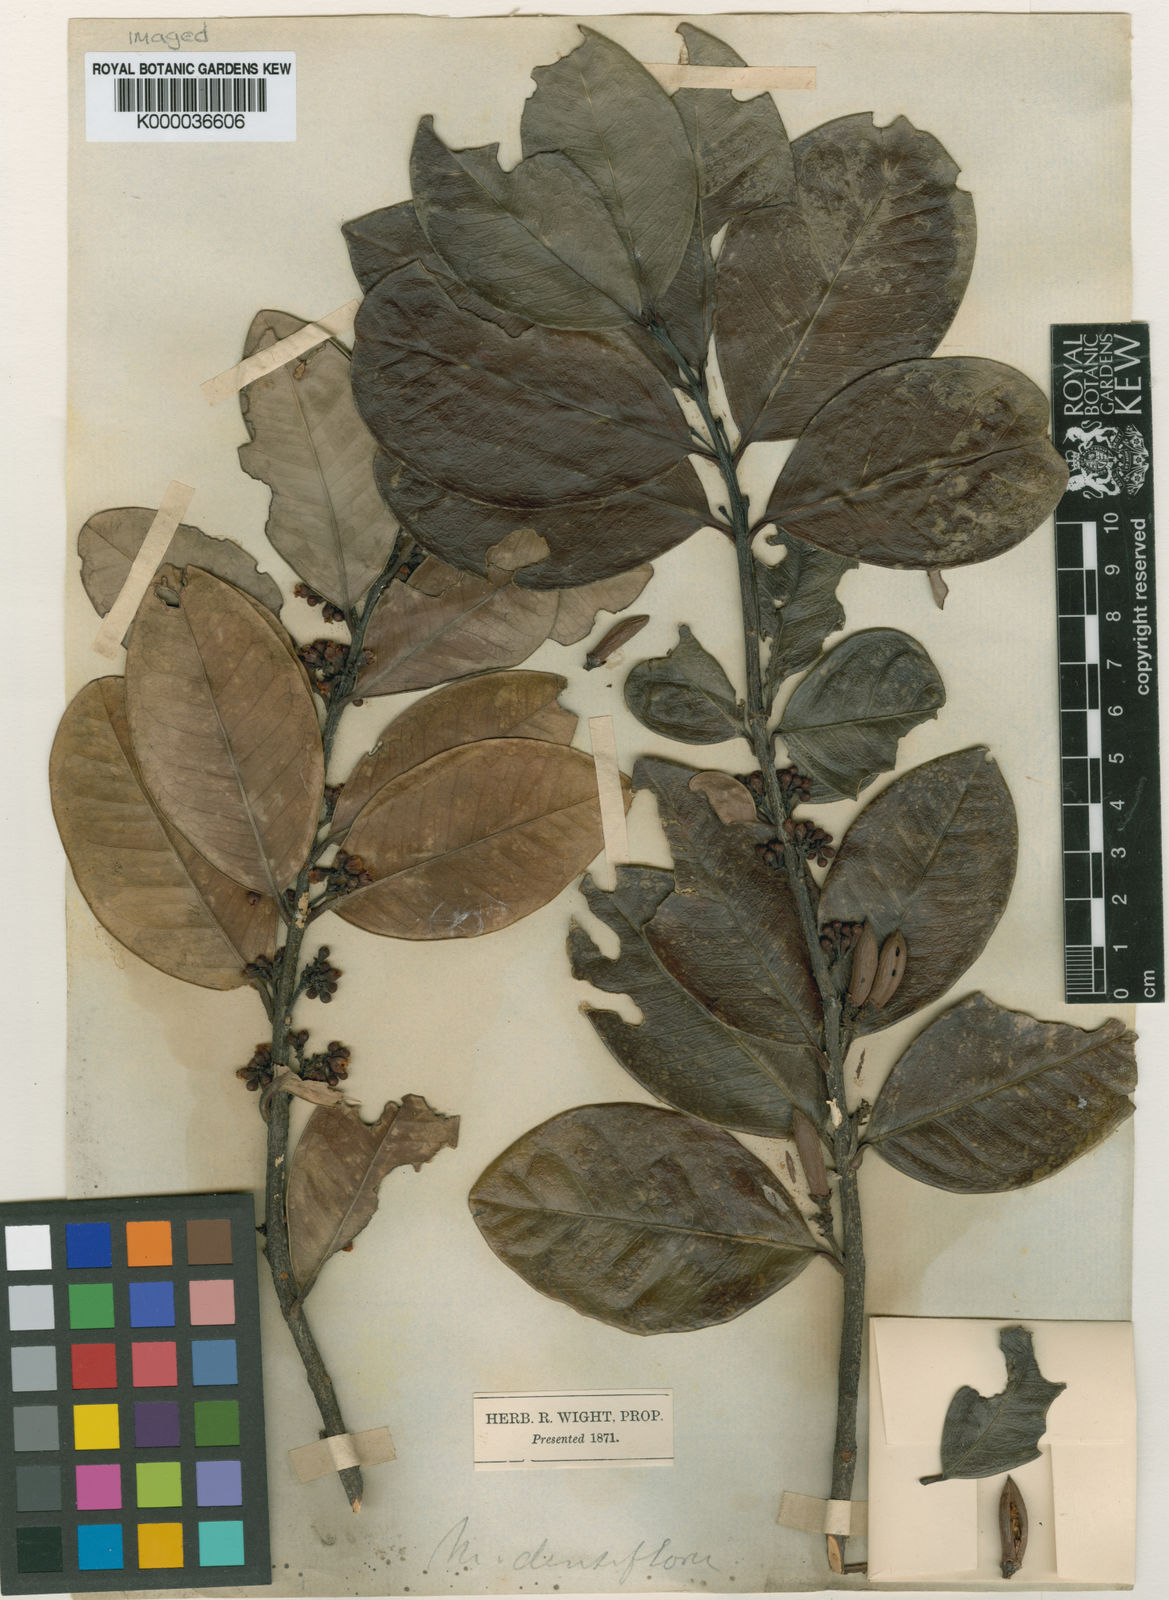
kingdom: Plantae
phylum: Tracheophyta
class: Magnoliopsida
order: Celastrales
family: Celastraceae
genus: Microtropis
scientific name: Microtropis microcarpa
